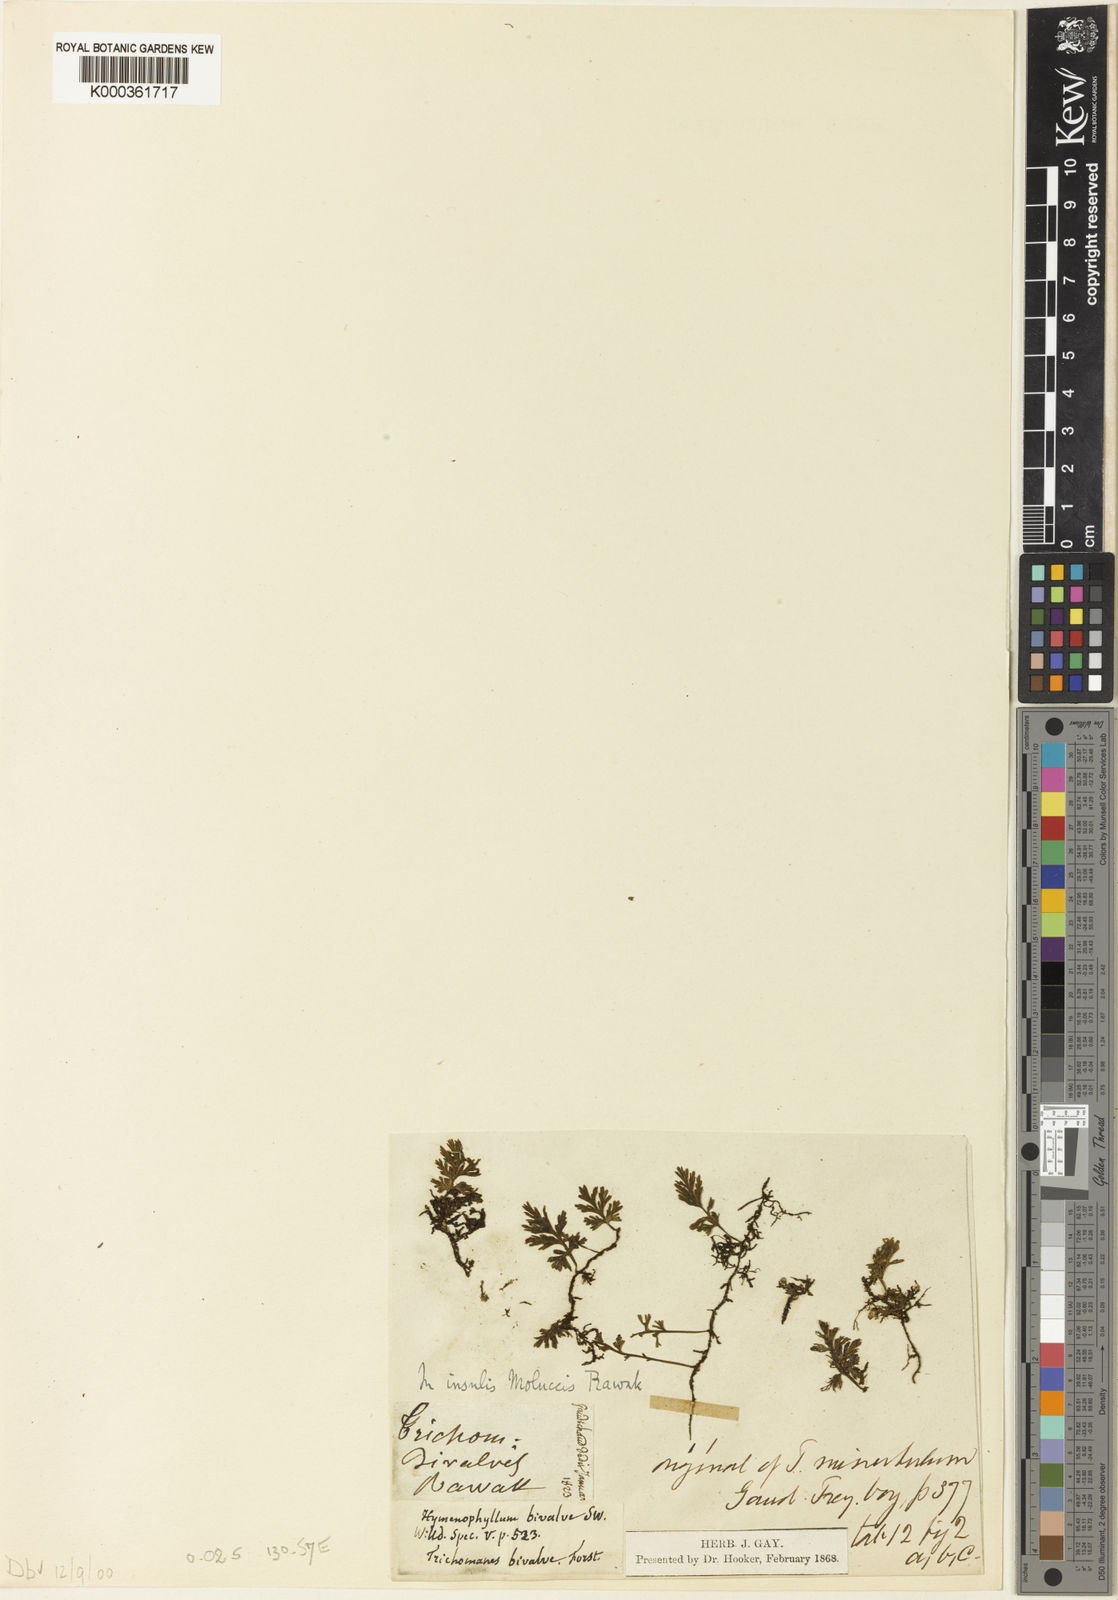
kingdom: Plantae
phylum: Tracheophyta
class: Polypodiopsida
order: Hymenophyllales
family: Hymenophyllaceae
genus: Crepidomanes
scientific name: Crepidomanes humile
